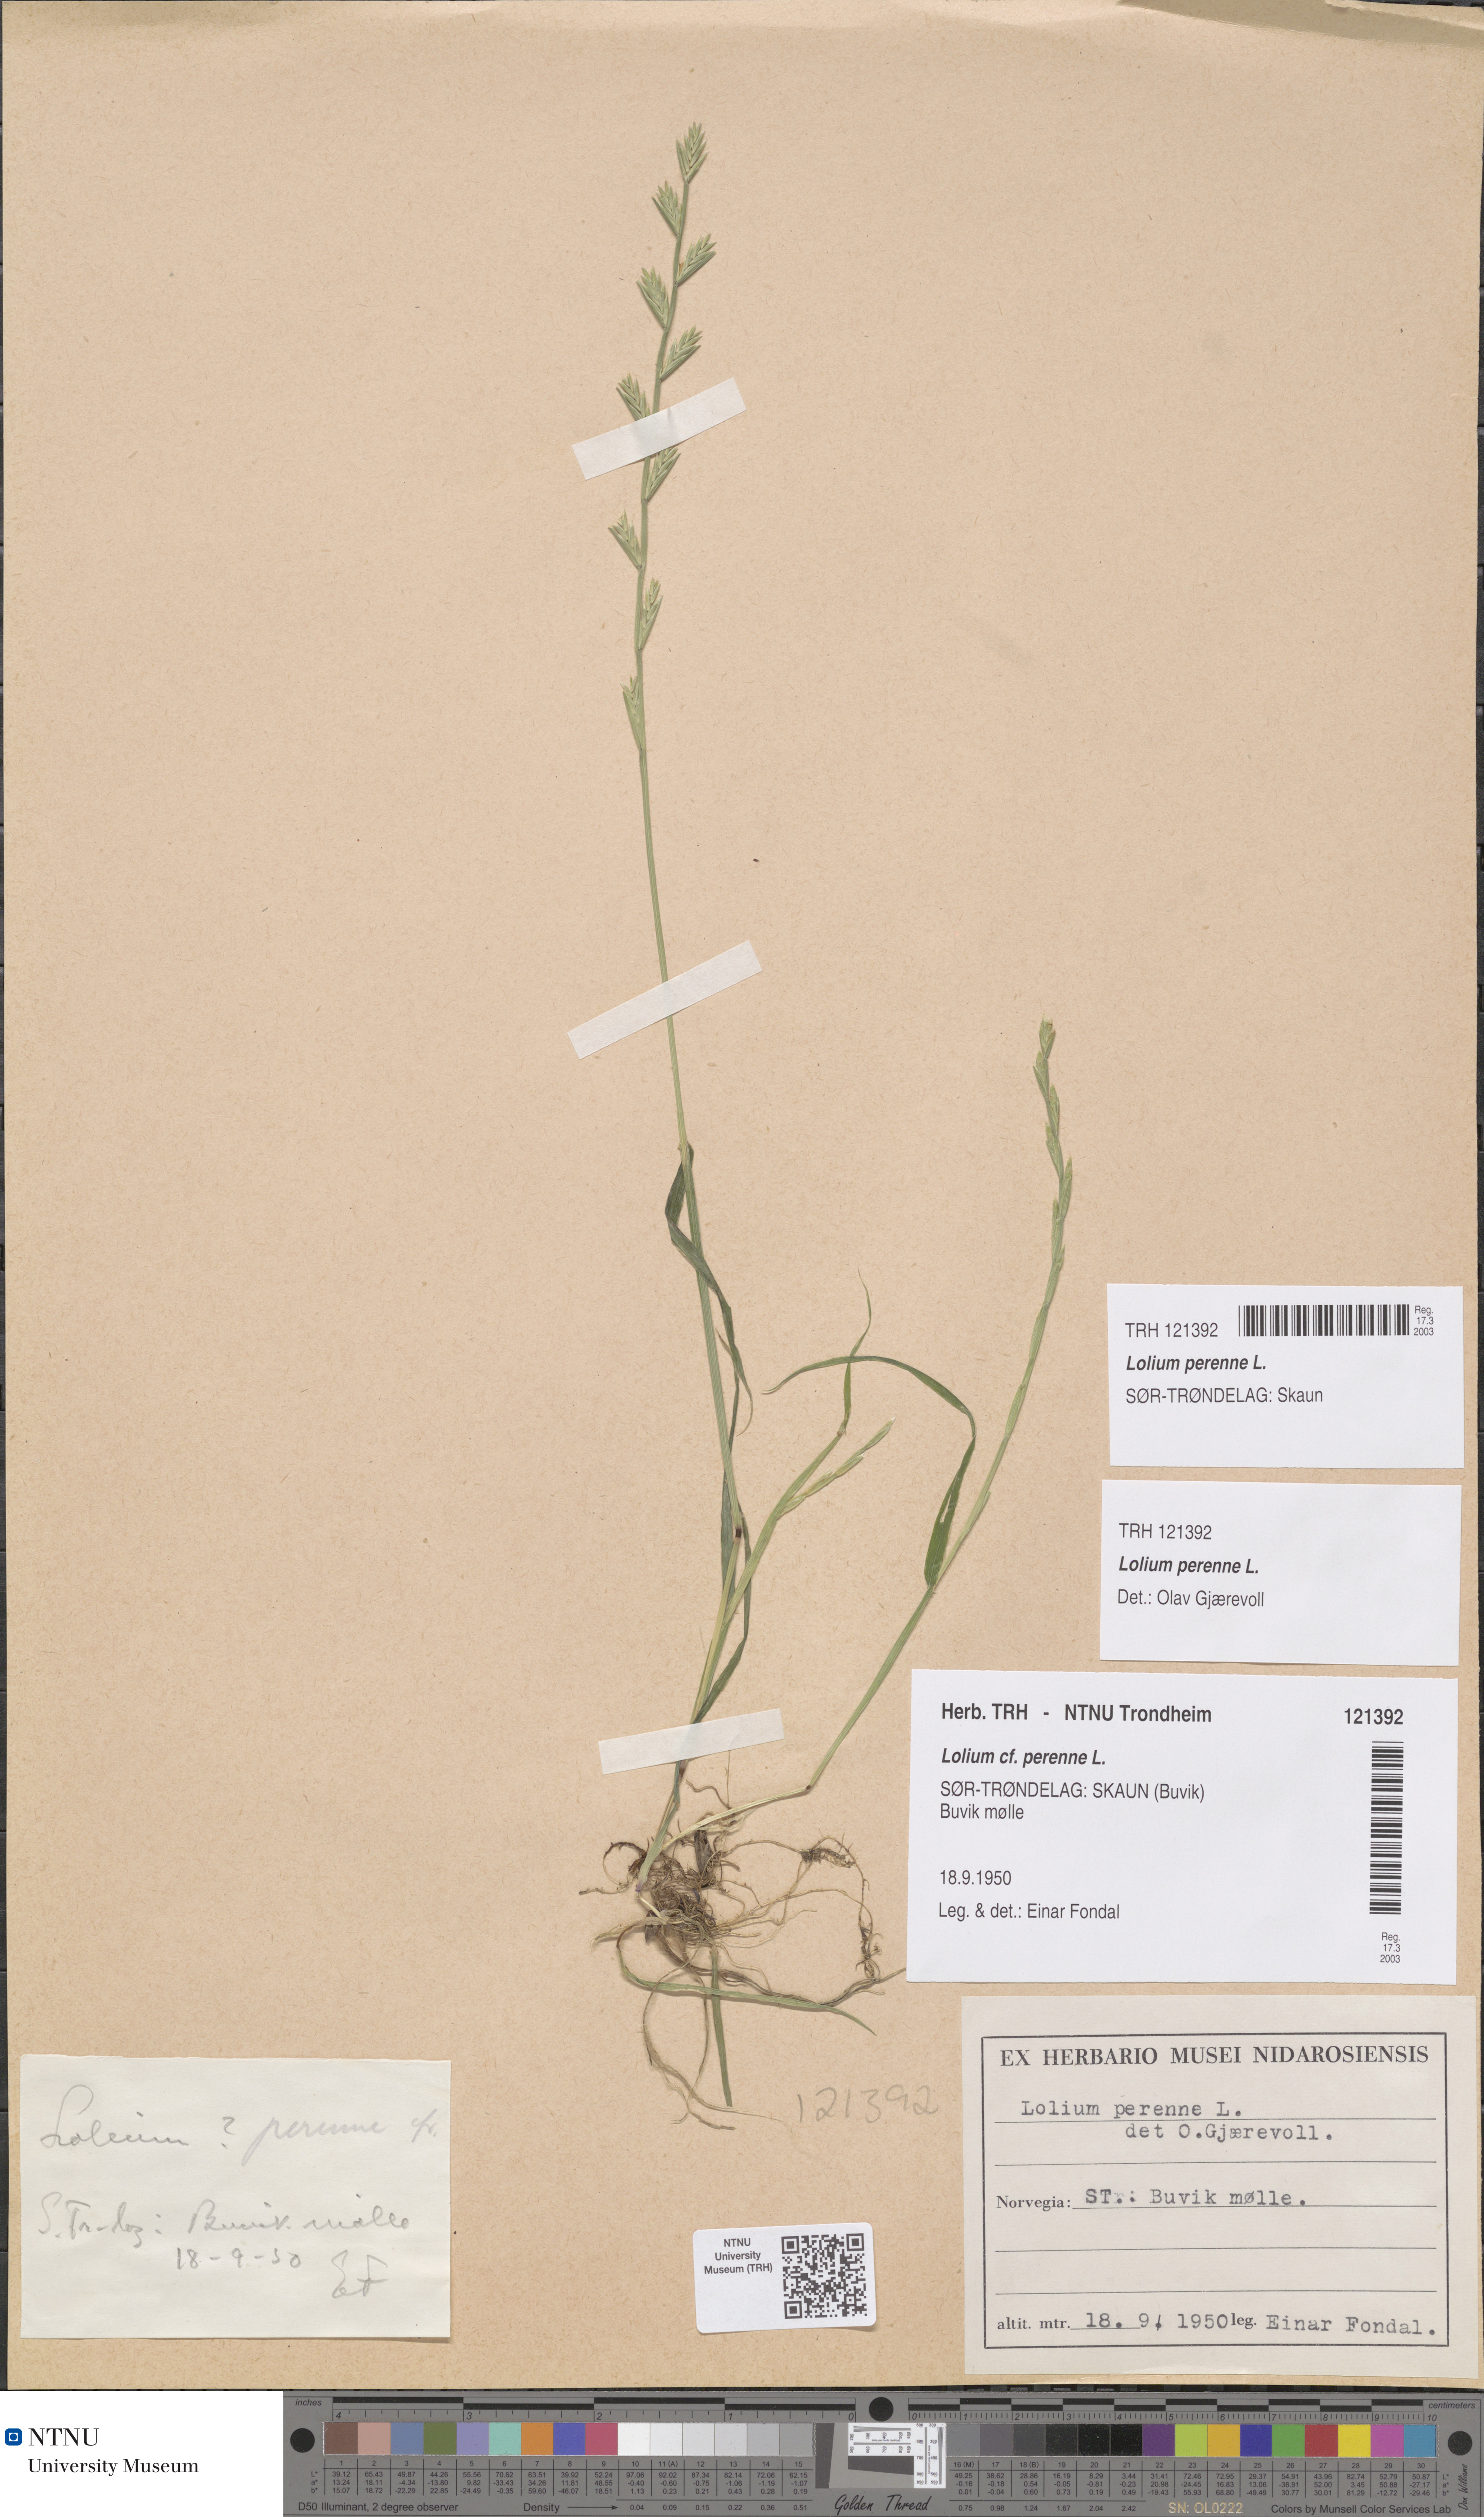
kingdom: Plantae
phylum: Tracheophyta
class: Liliopsida
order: Poales
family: Poaceae
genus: Lolium
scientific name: Lolium perenne
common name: Perennial ryegrass
